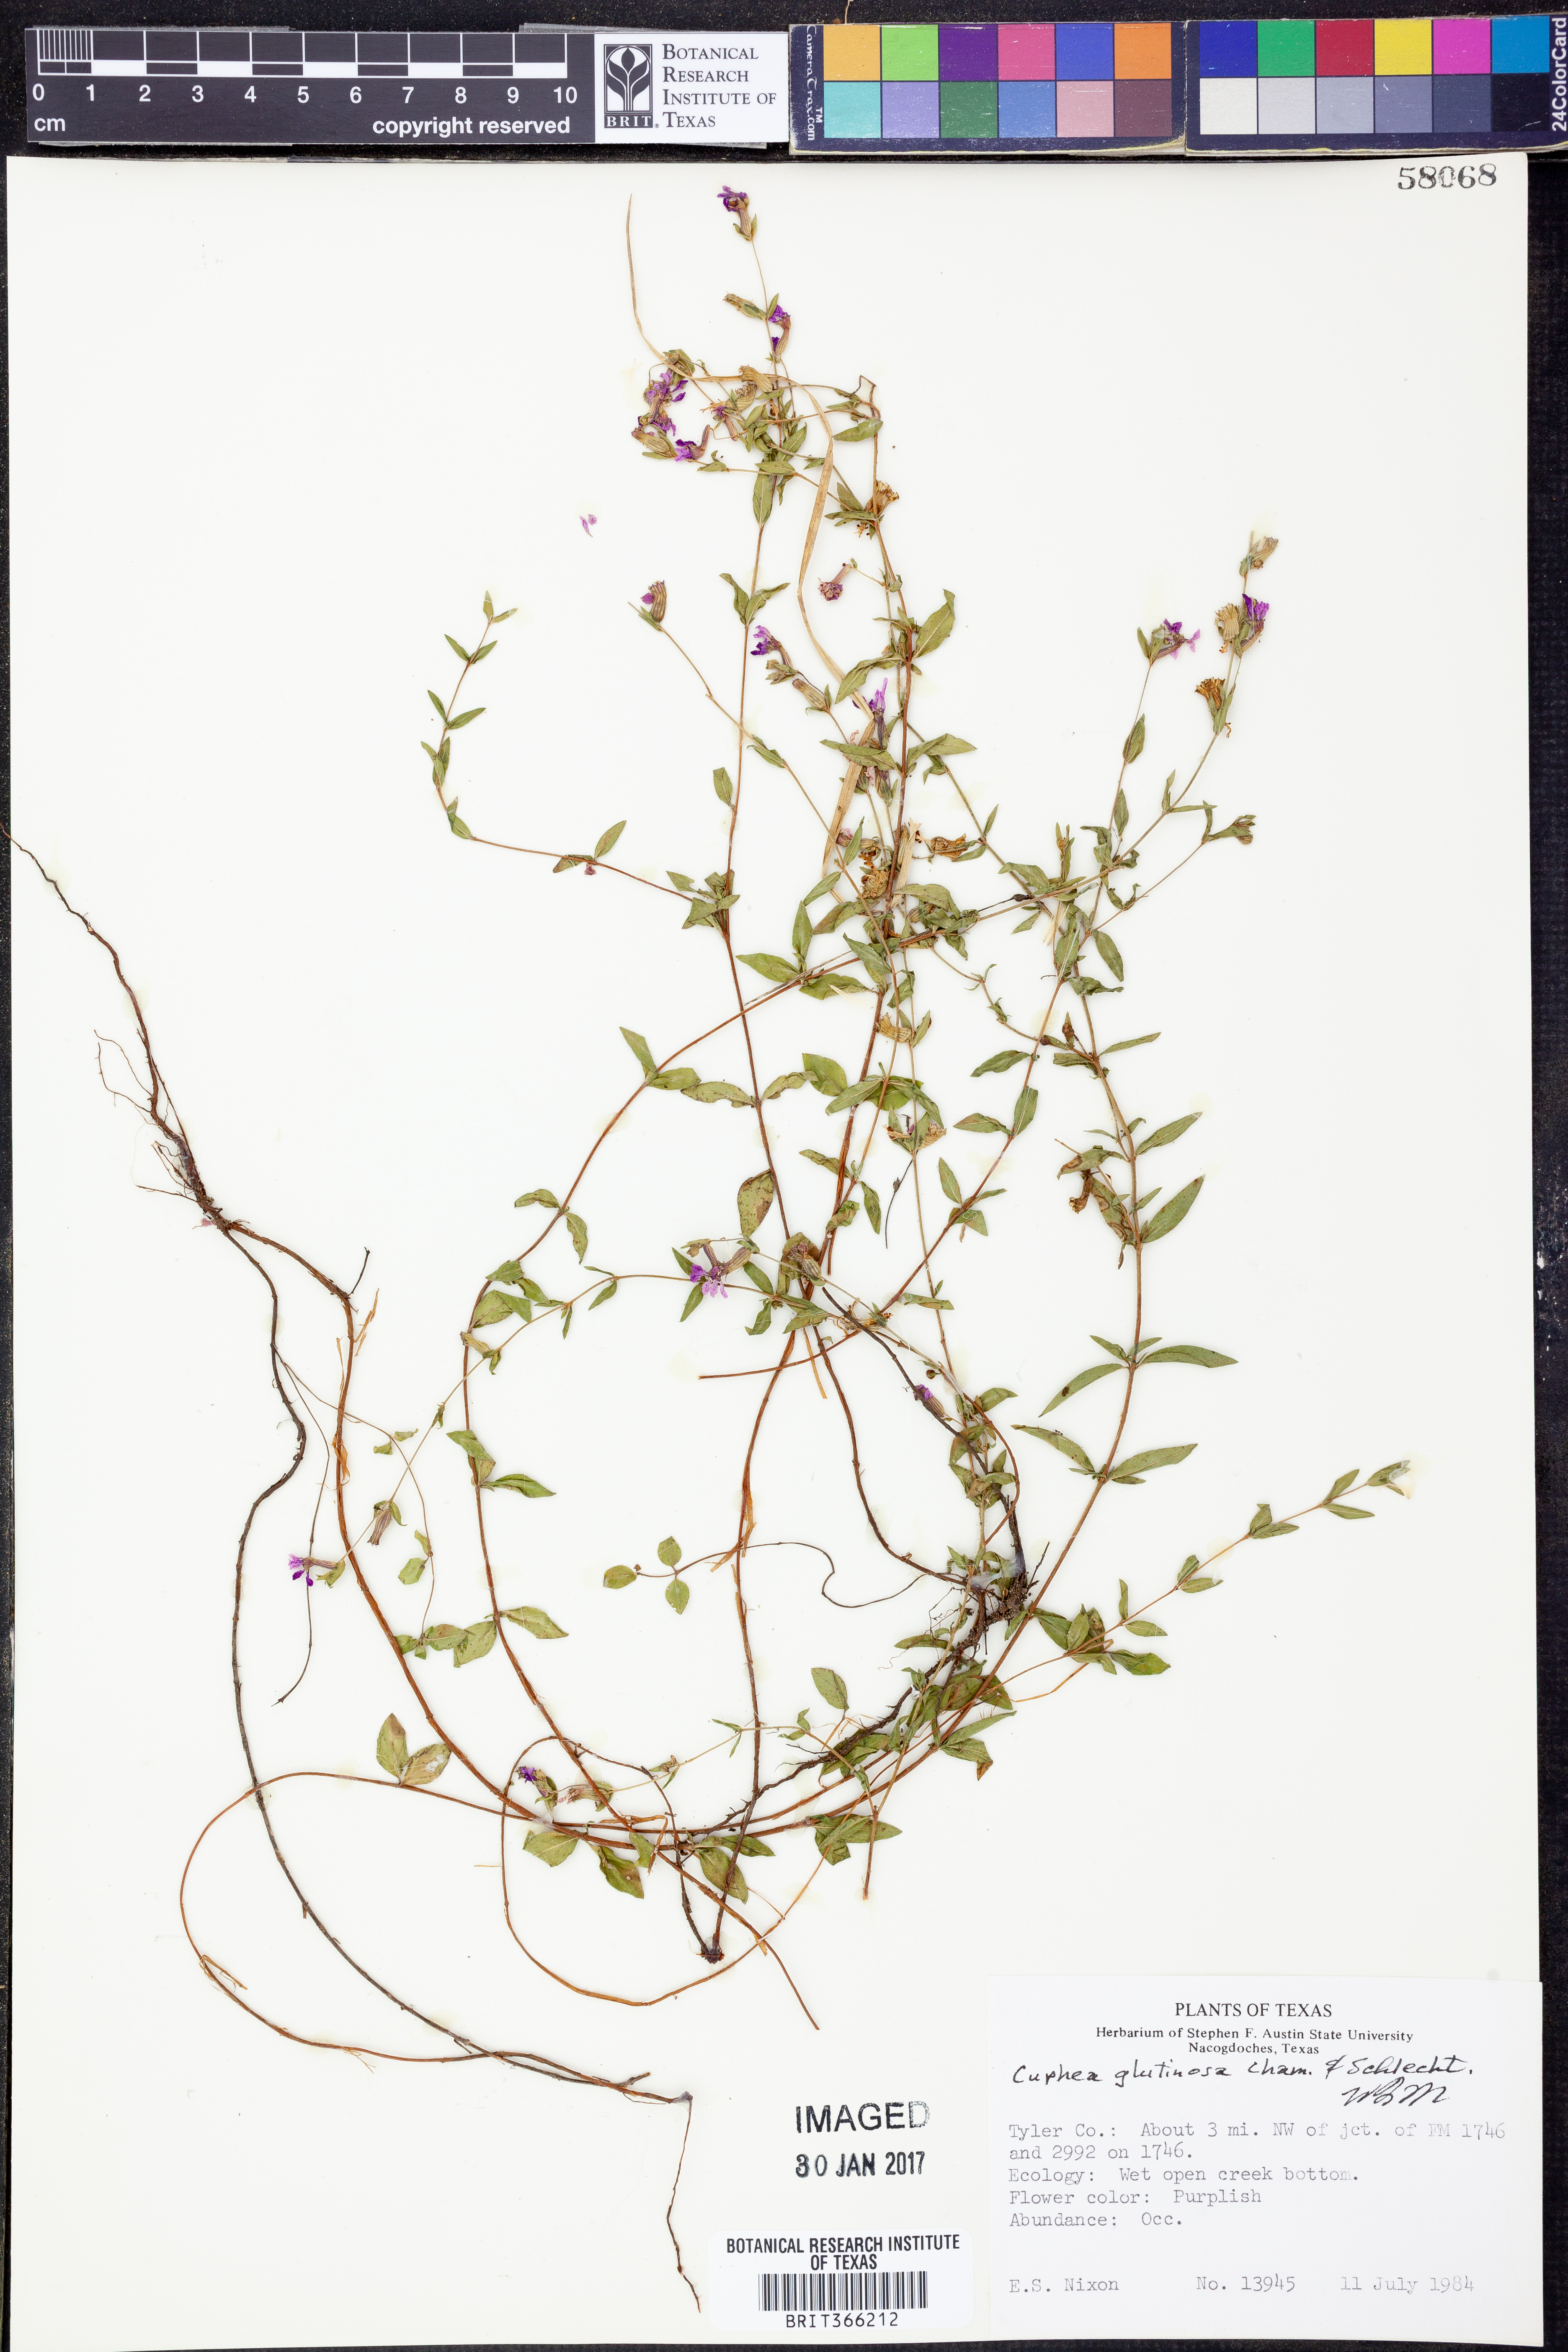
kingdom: Plantae
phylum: Tracheophyta
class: Magnoliopsida
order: Myrtales
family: Lythraceae
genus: Cuphea
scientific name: Cuphea glutinosa
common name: Sticky waxweed
